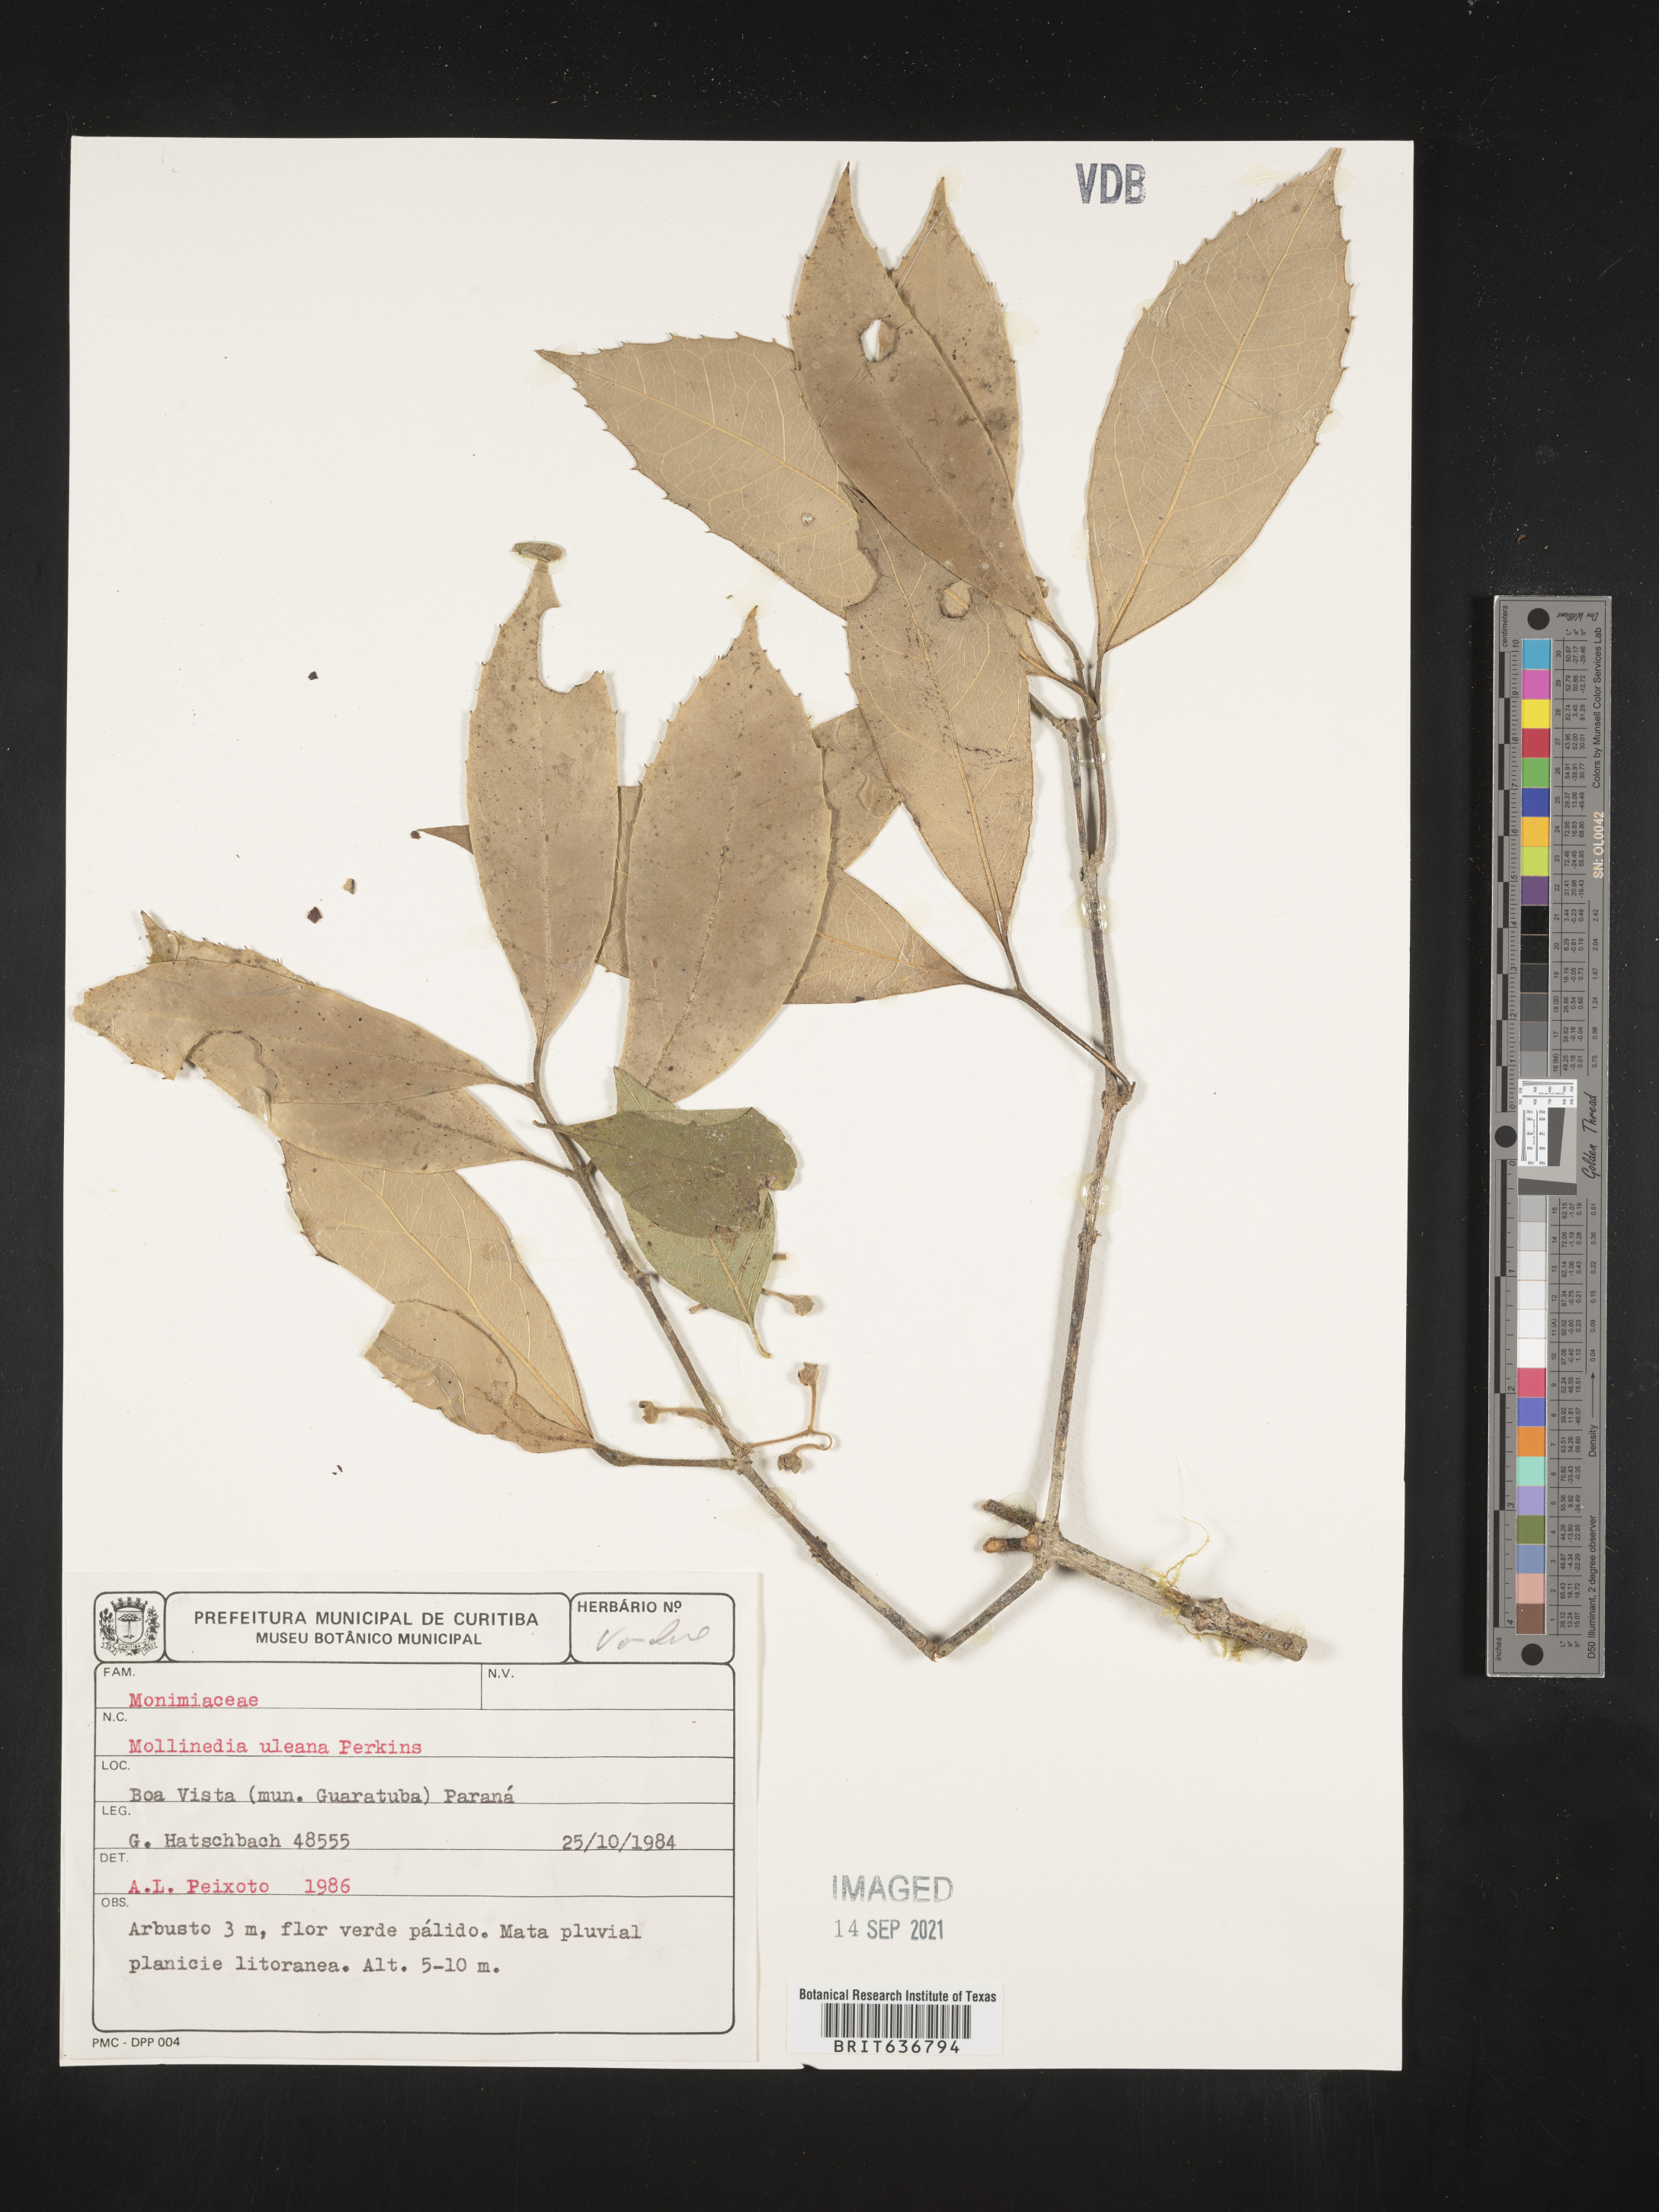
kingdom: Plantae
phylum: Tracheophyta
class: Magnoliopsida
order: Laurales
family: Monimiaceae
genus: Mollinedia
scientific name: Mollinedia
